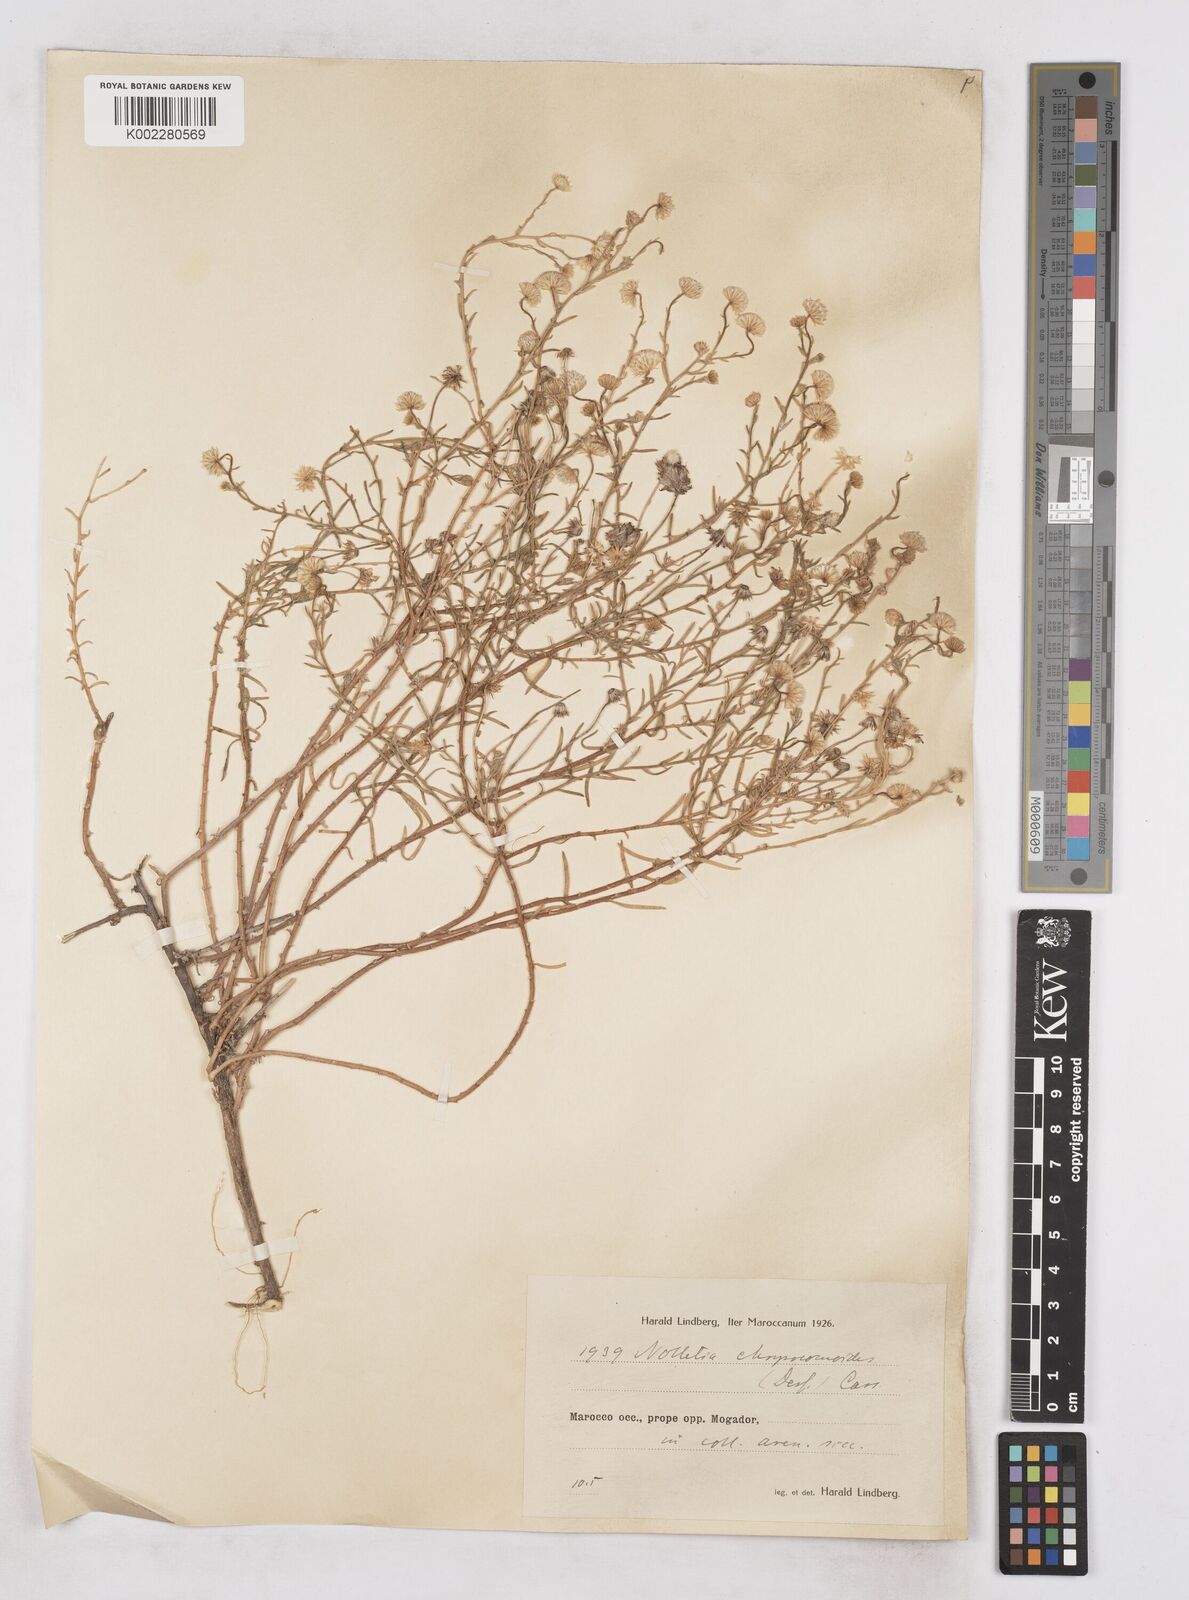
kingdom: Plantae
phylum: Tracheophyta
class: Magnoliopsida
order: Asterales
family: Asteraceae
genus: Nolletia
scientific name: Nolletia chrysocomoides
